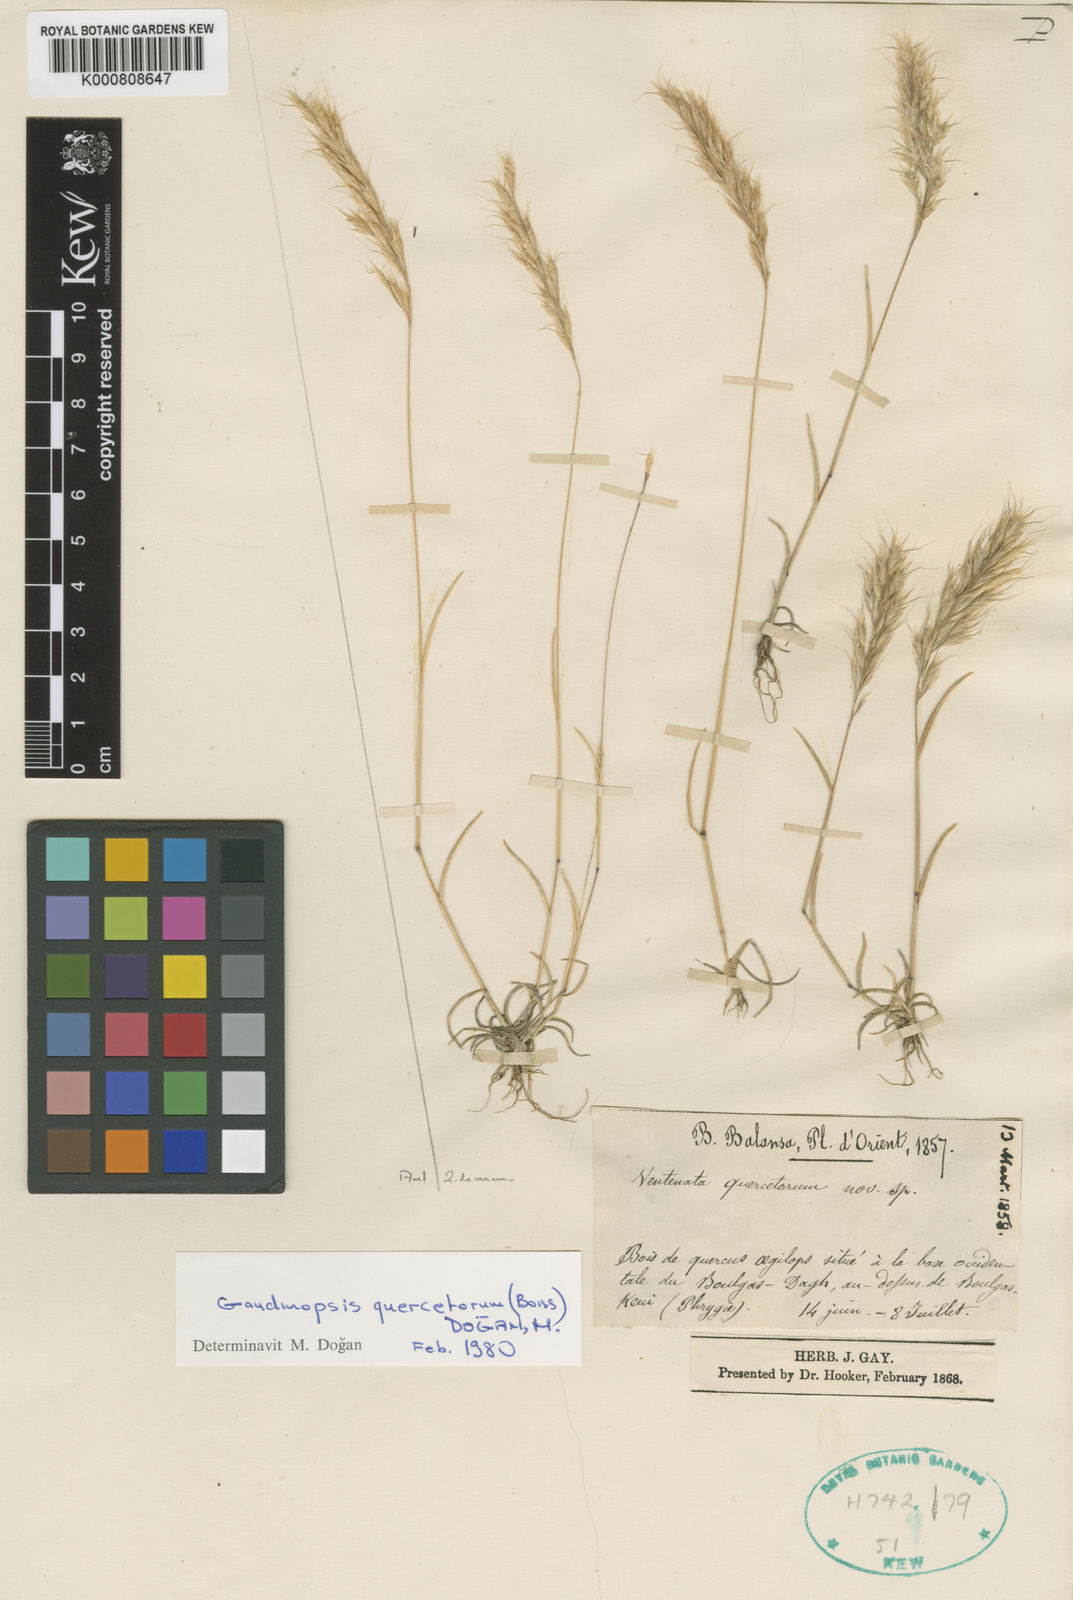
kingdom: Plantae
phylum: Tracheophyta
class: Liliopsida
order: Poales
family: Poaceae
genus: Ventenata
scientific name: Ventenata quercetorum
